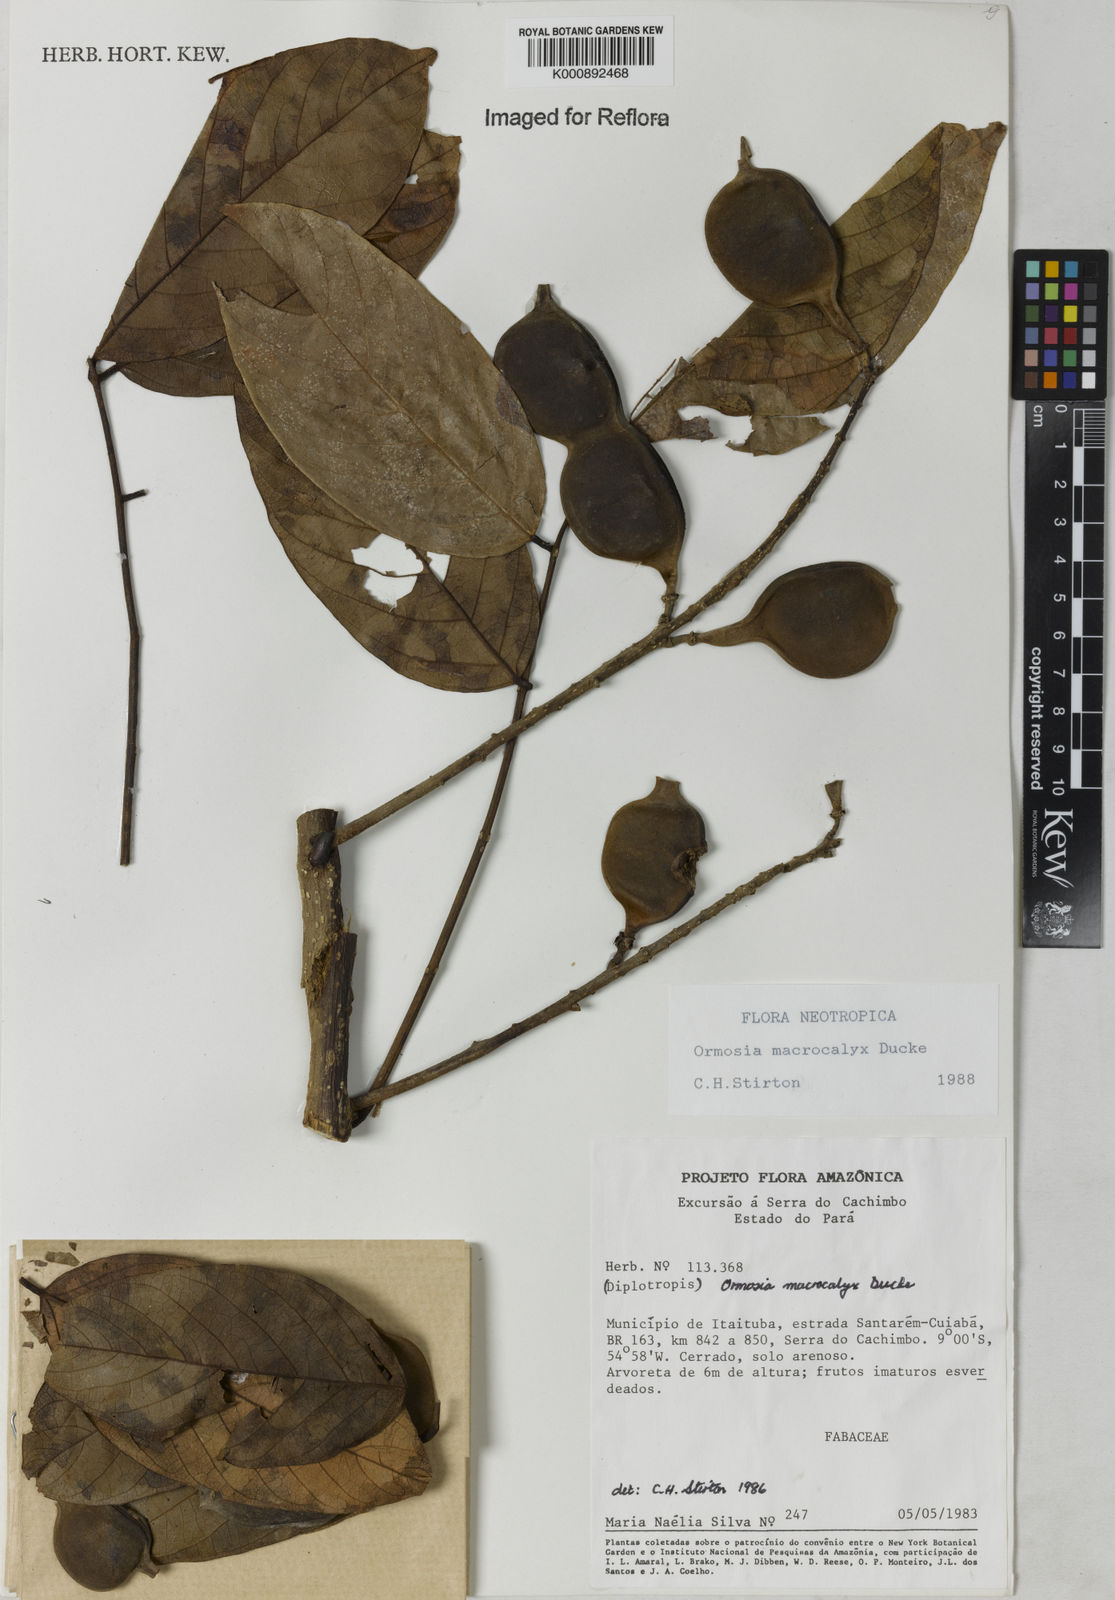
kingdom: Plantae
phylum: Tracheophyta
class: Magnoliopsida
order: Fabales
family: Fabaceae
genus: Ormosia
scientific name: Ormosia macrocalyx
